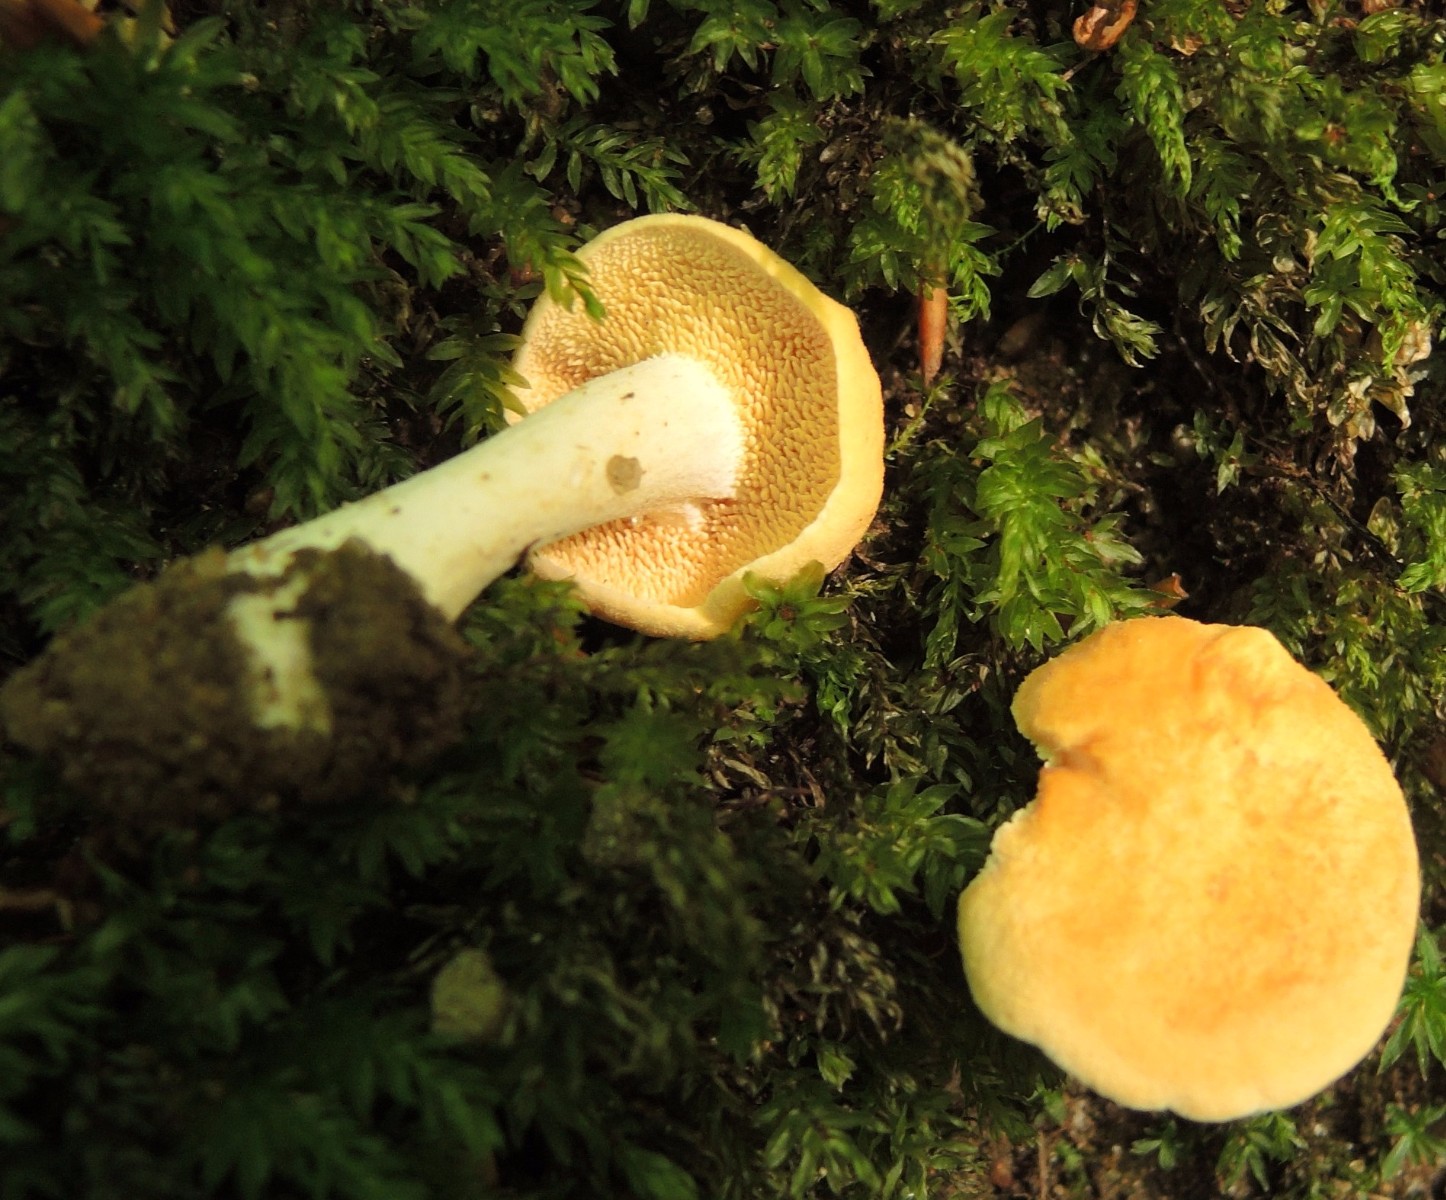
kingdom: Fungi
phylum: Basidiomycota
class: Agaricomycetes
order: Cantharellales
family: Hydnaceae
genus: Hydnum
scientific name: Hydnum ellipsosporum
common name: tandet pigsvamp
